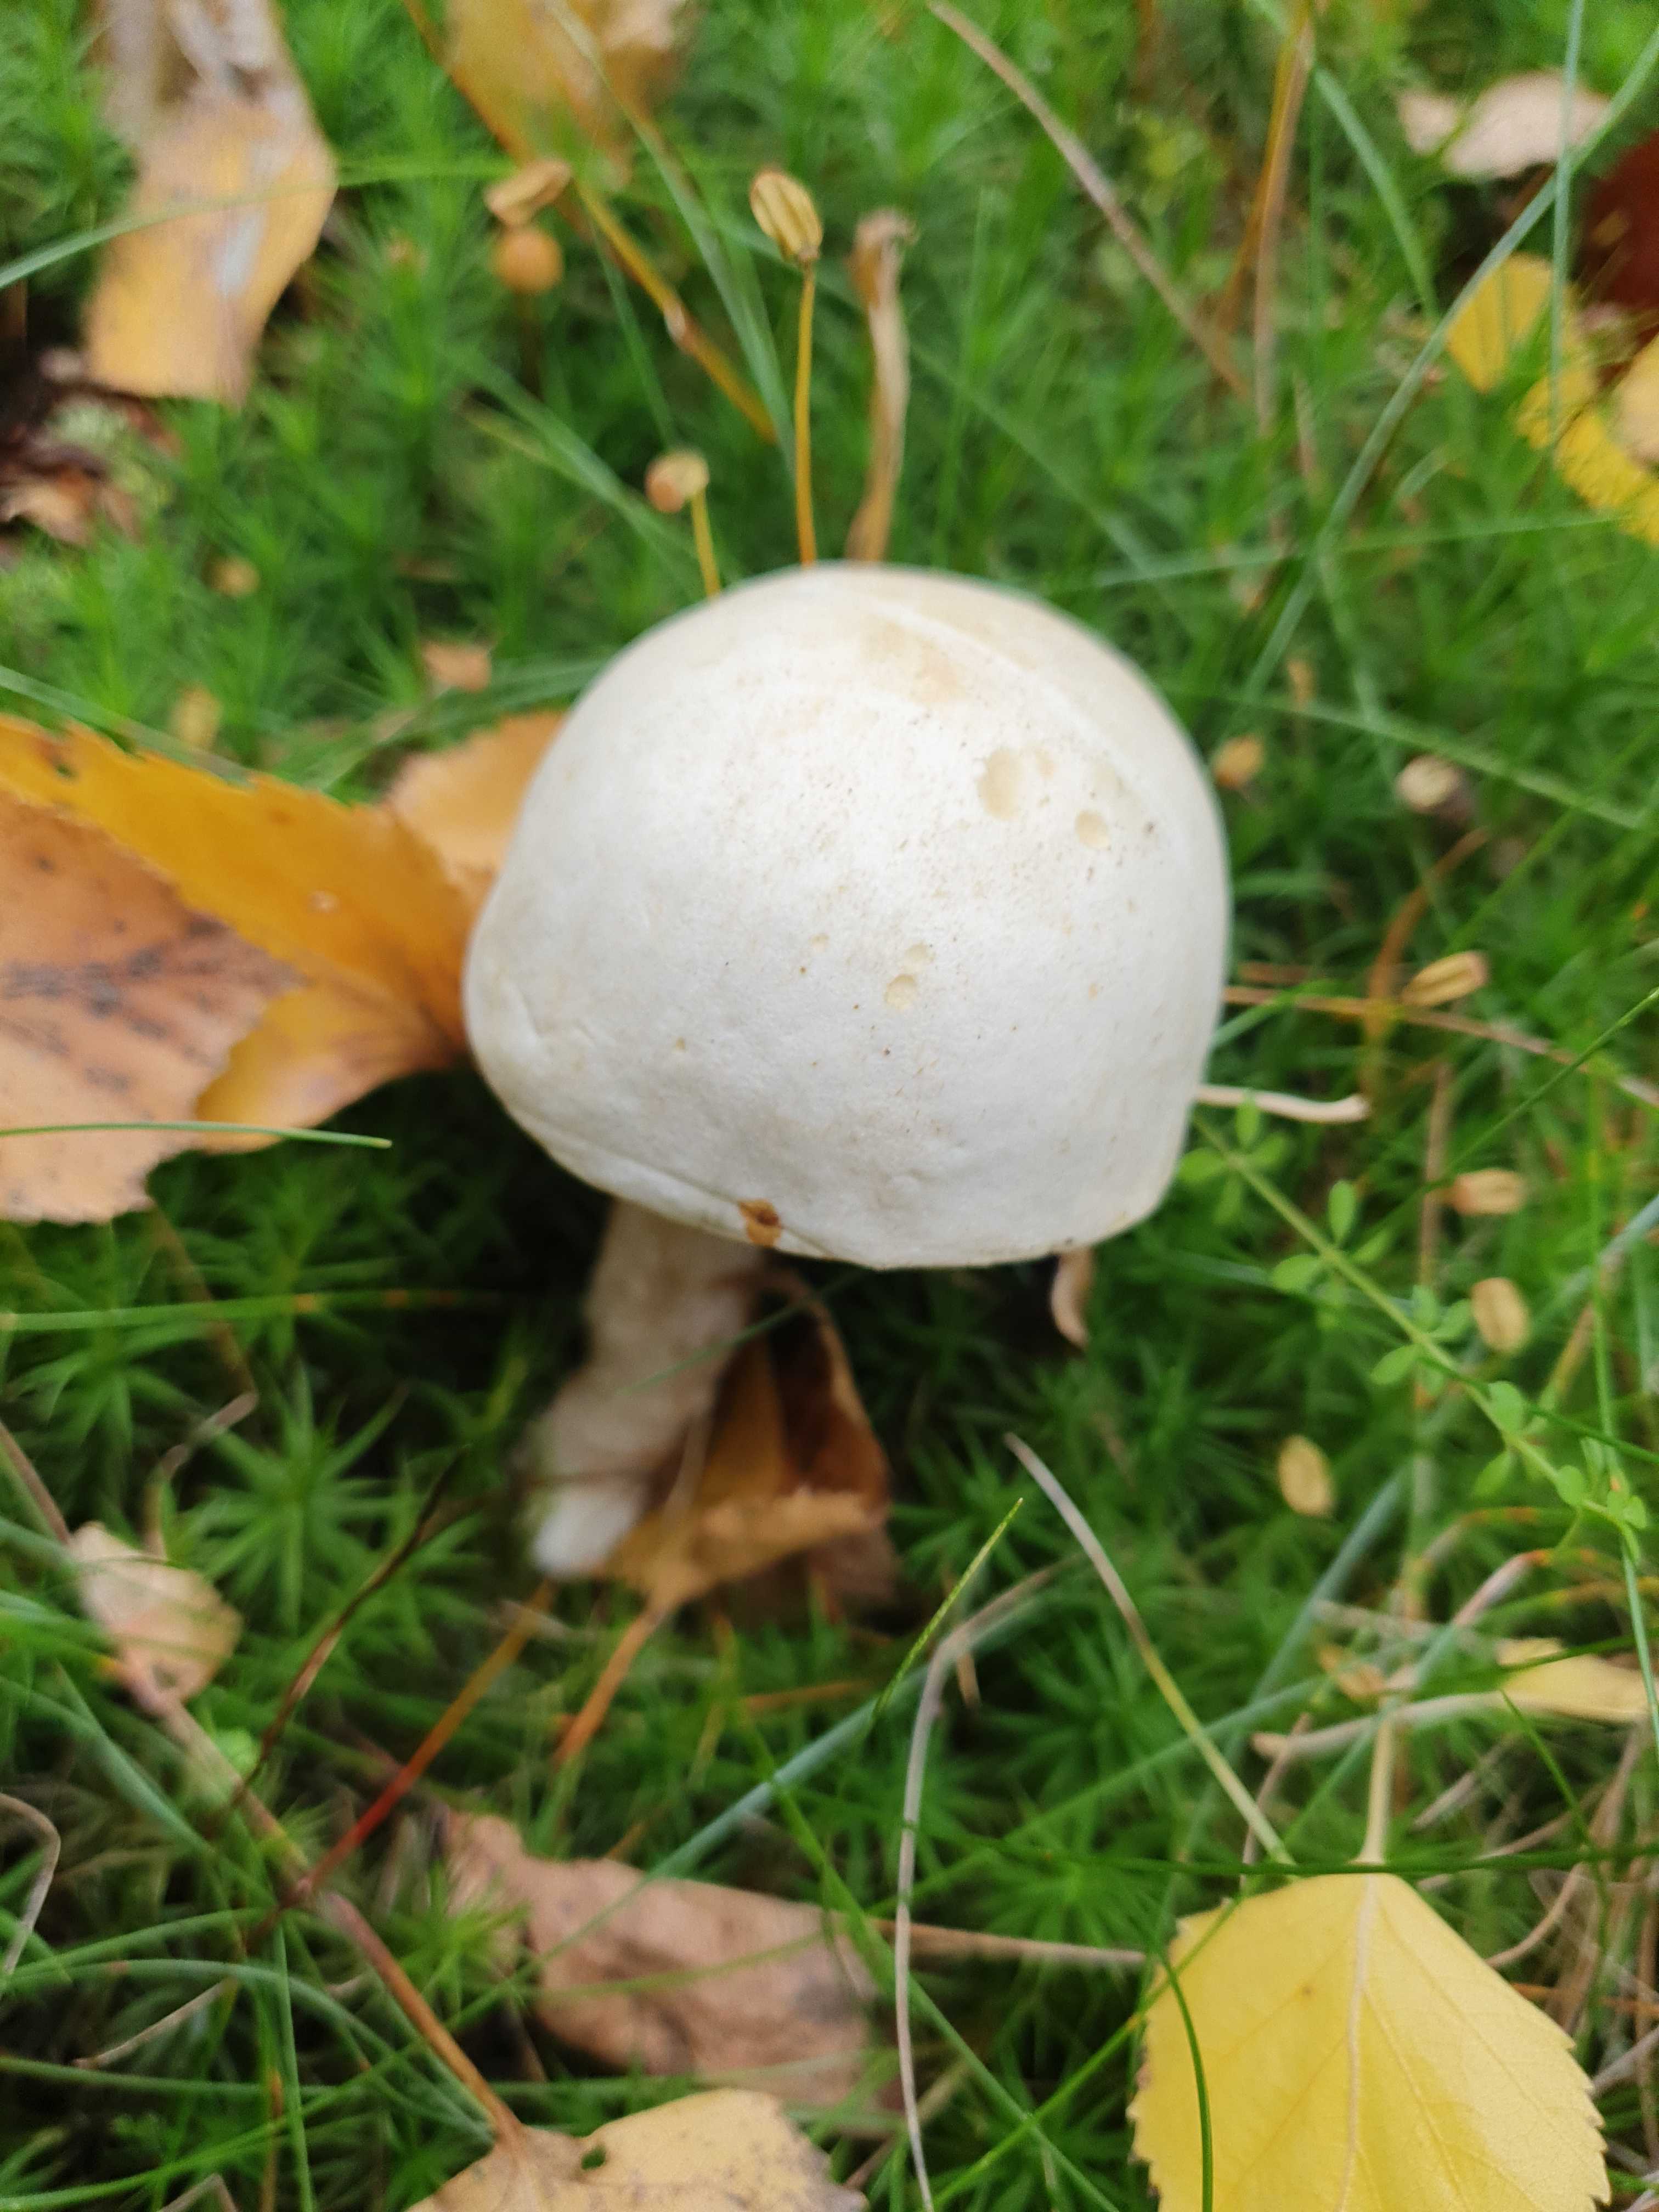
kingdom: Fungi
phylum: Basidiomycota
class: Agaricomycetes
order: Boletales
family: Boletaceae
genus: Leccinum
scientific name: Leccinum scabrum
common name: hvid skælrørhat
